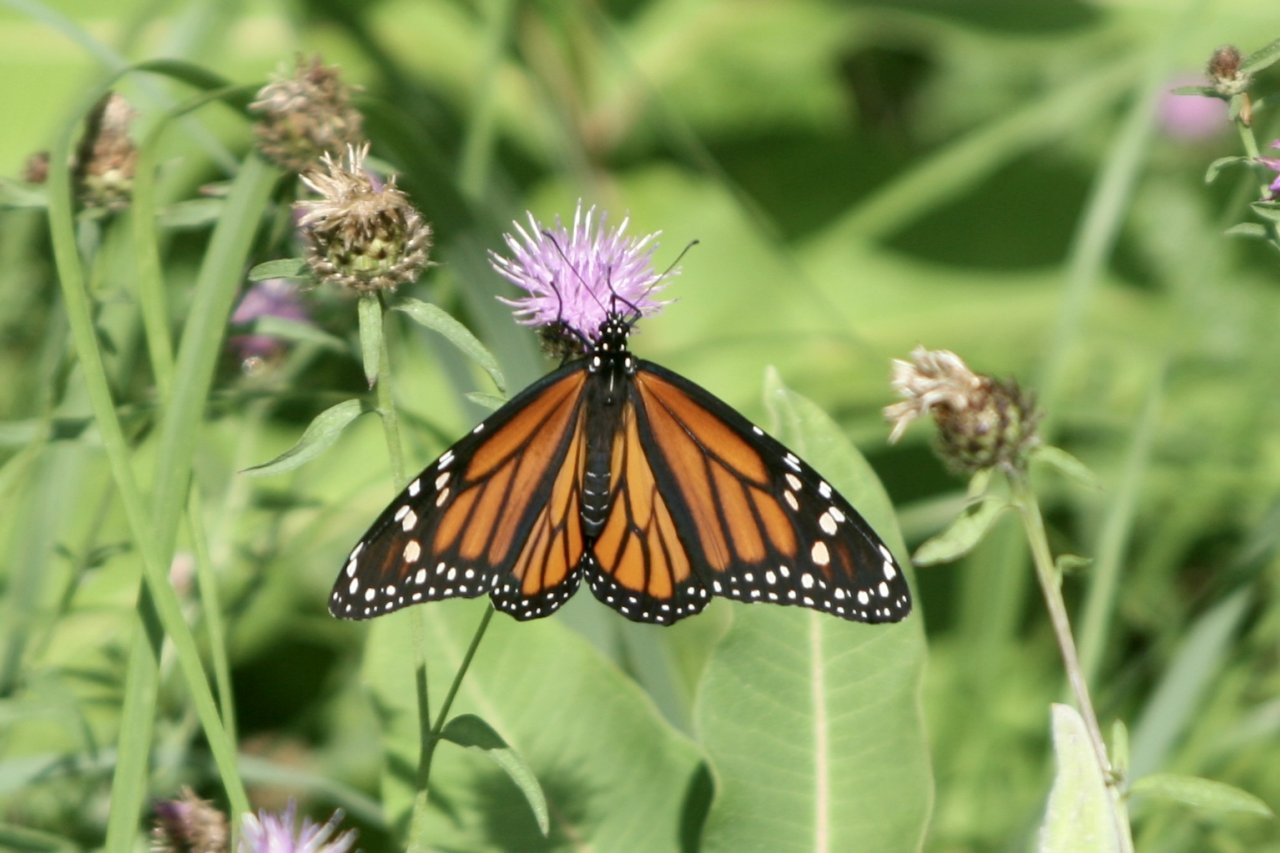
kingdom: Animalia
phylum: Arthropoda
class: Insecta
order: Lepidoptera
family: Nymphalidae
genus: Danaus
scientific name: Danaus plexippus
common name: Monarch
